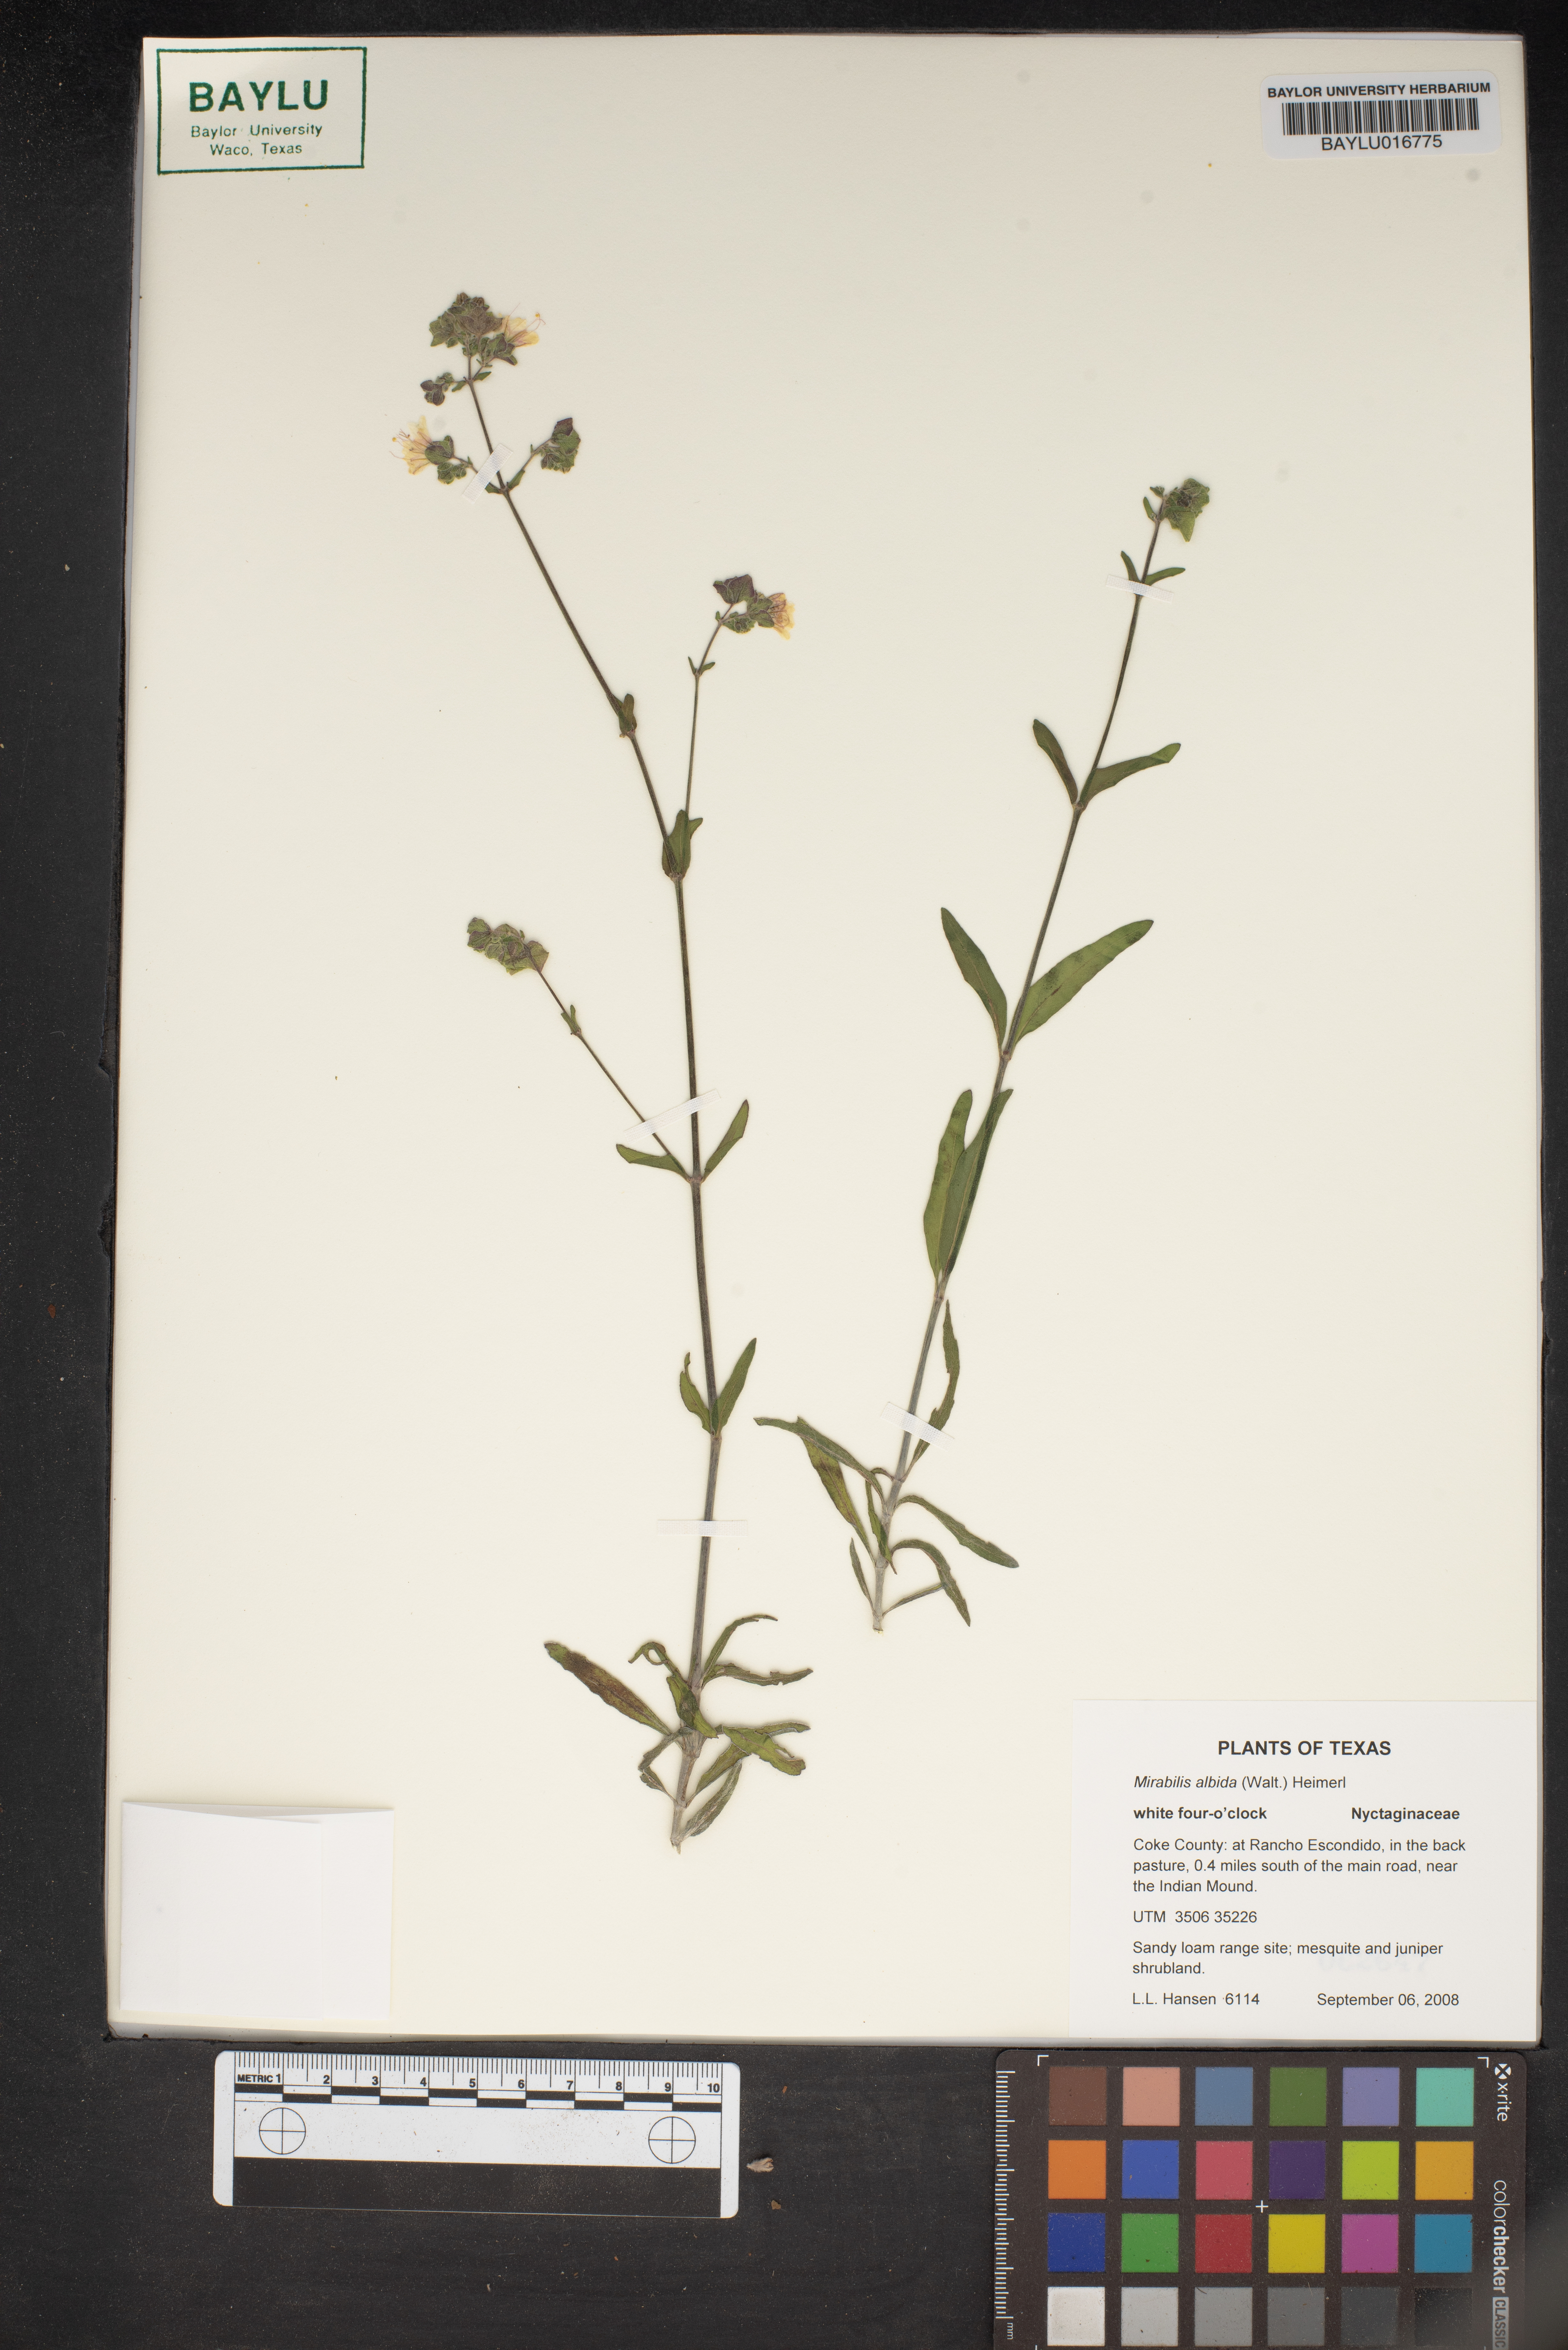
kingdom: Plantae
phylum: Tracheophyta
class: Magnoliopsida
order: Caryophyllales
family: Nyctaginaceae
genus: Mirabilis
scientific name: Mirabilis albida
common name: Hairy four-o'clock
